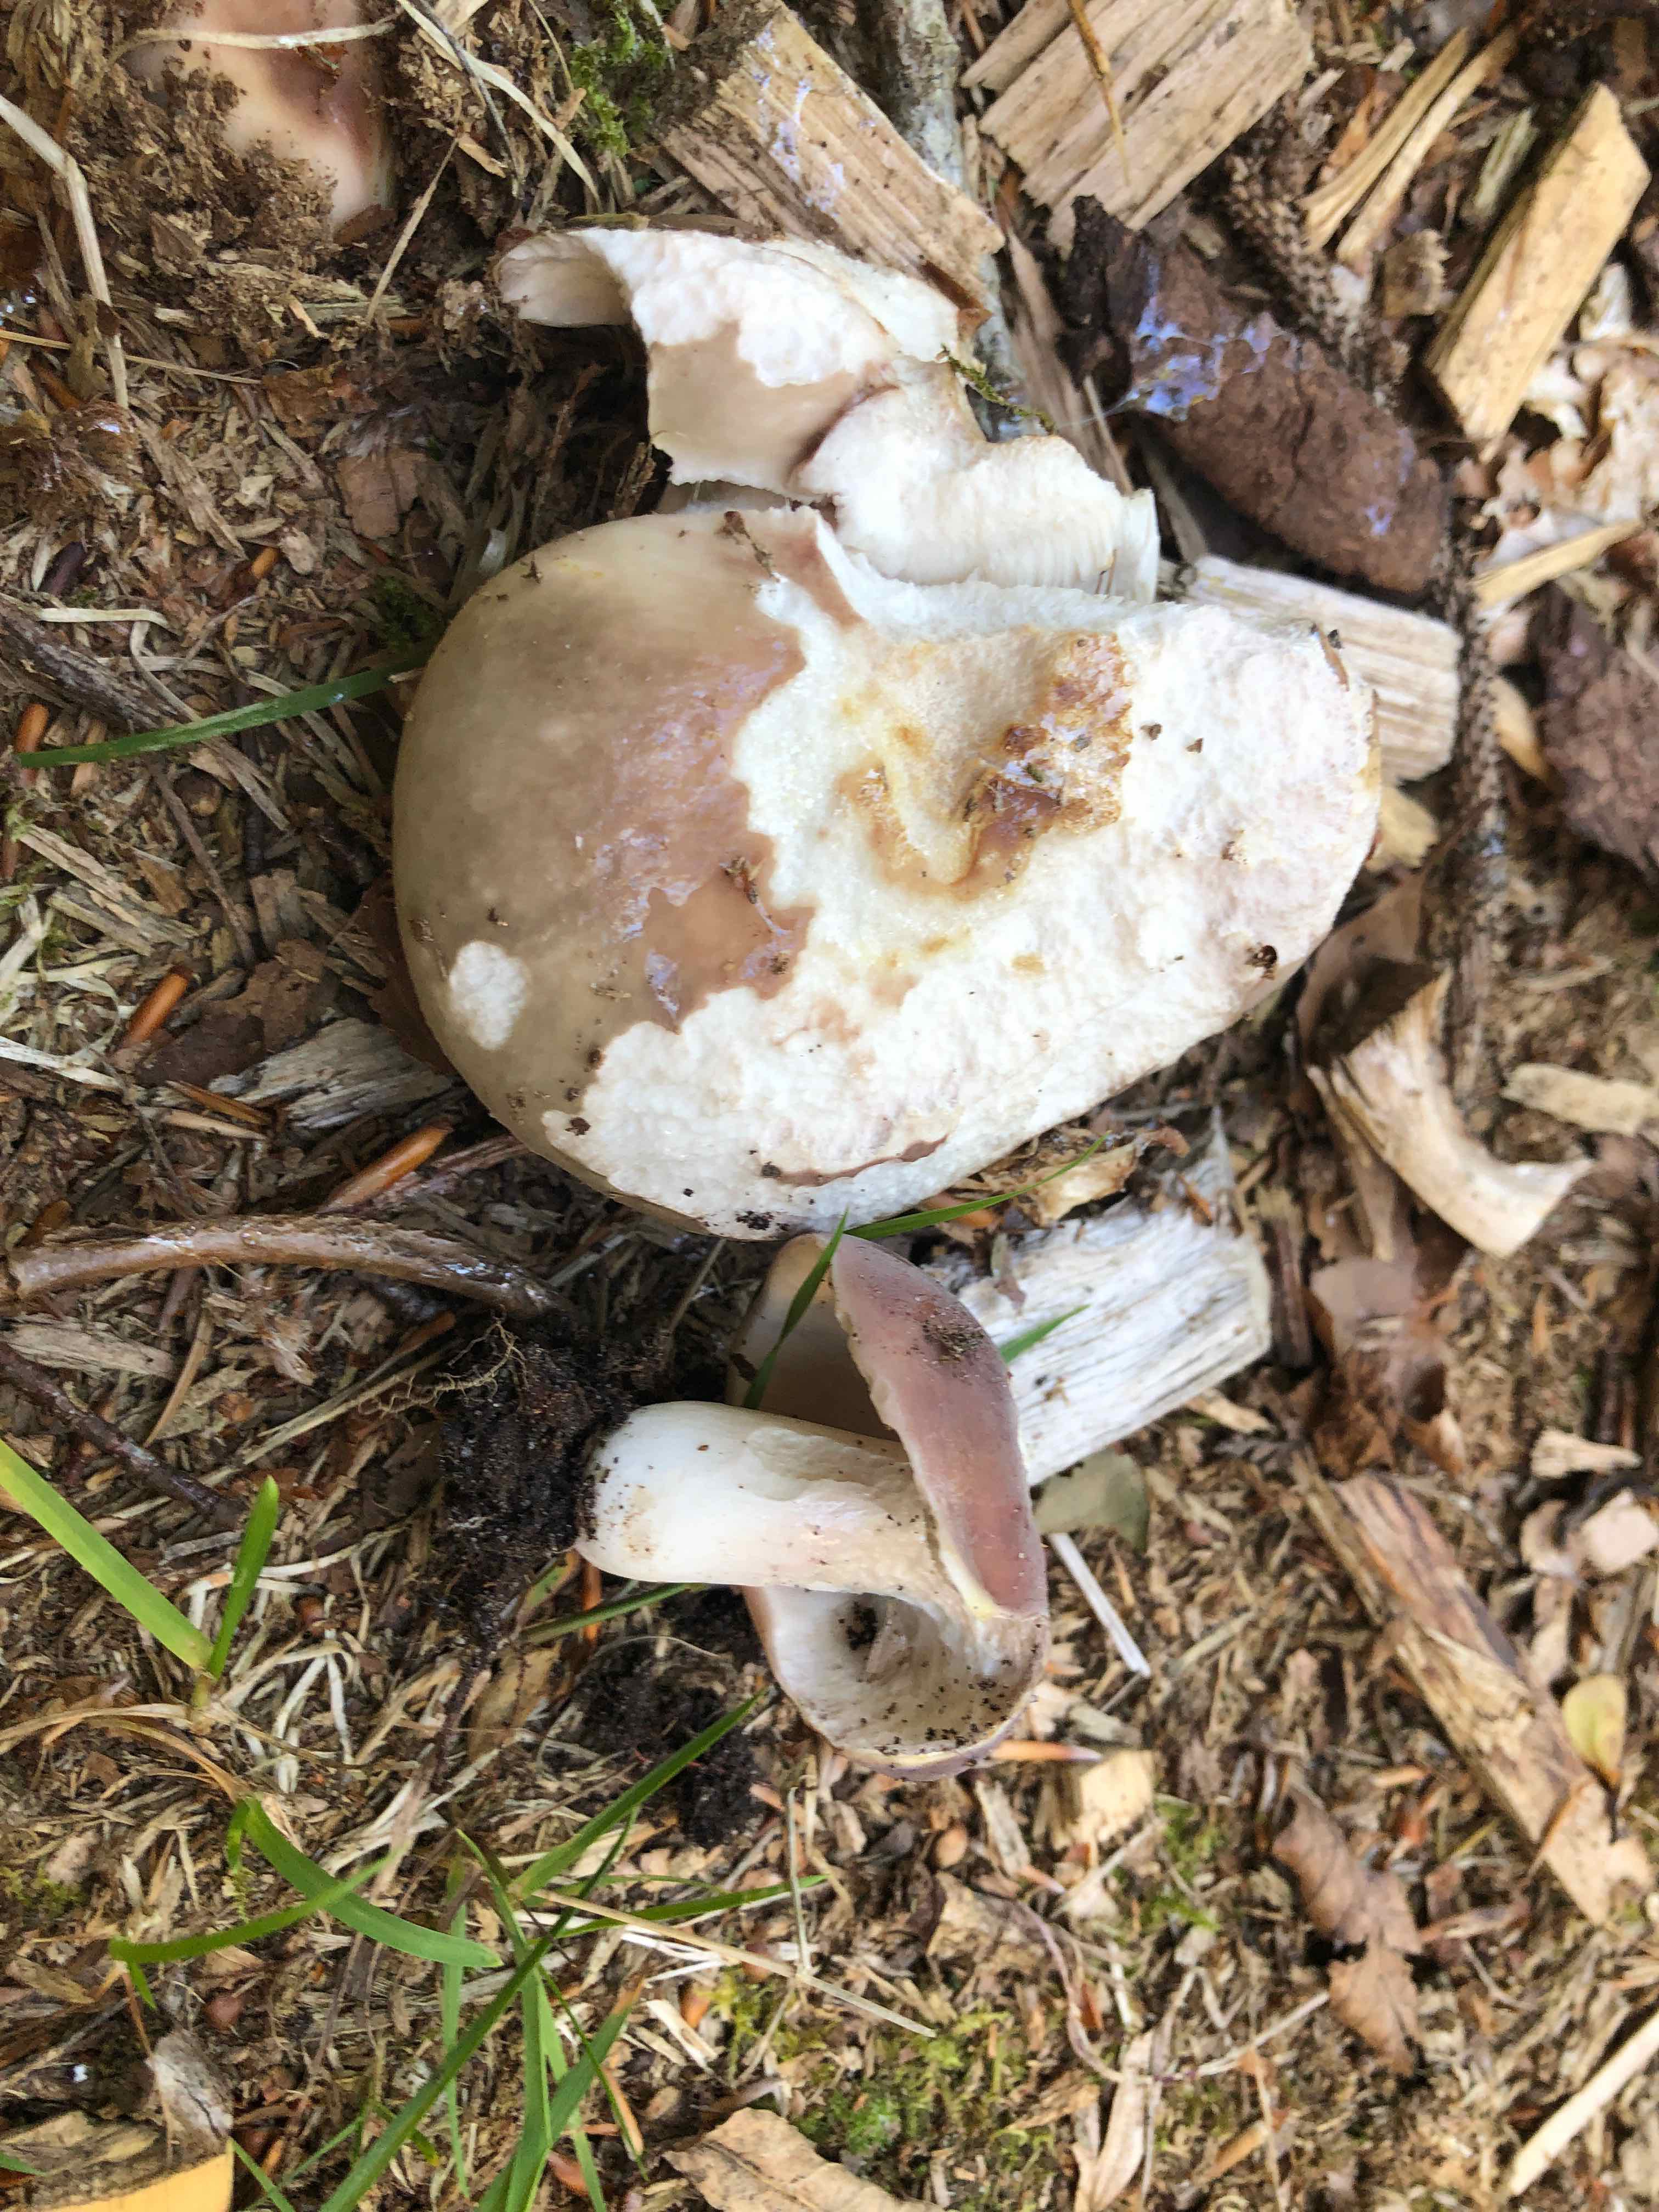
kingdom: Fungi
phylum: Basidiomycota
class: Agaricomycetes
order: Russulales
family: Russulaceae
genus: Russula
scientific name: Russula vesca
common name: spiselig skørhat
